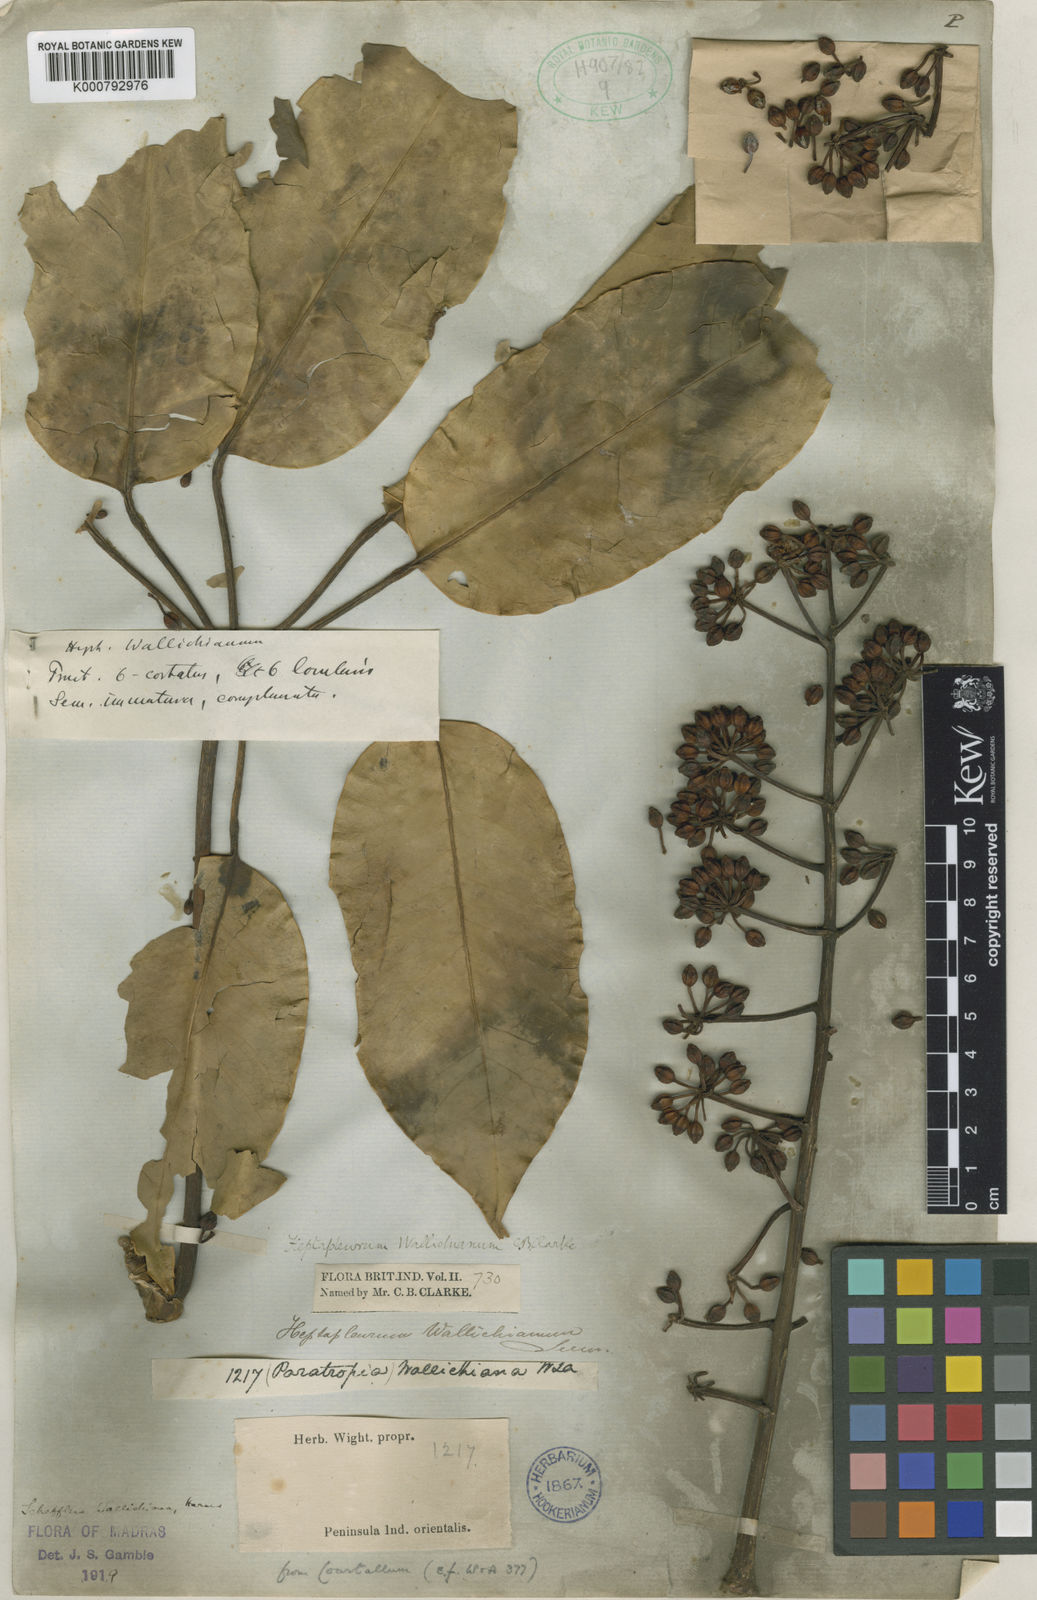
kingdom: Plantae
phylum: Tracheophyta
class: Magnoliopsida
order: Apiales
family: Araliaceae
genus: Heptapleurum
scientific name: Heptapleurum wallichianum
